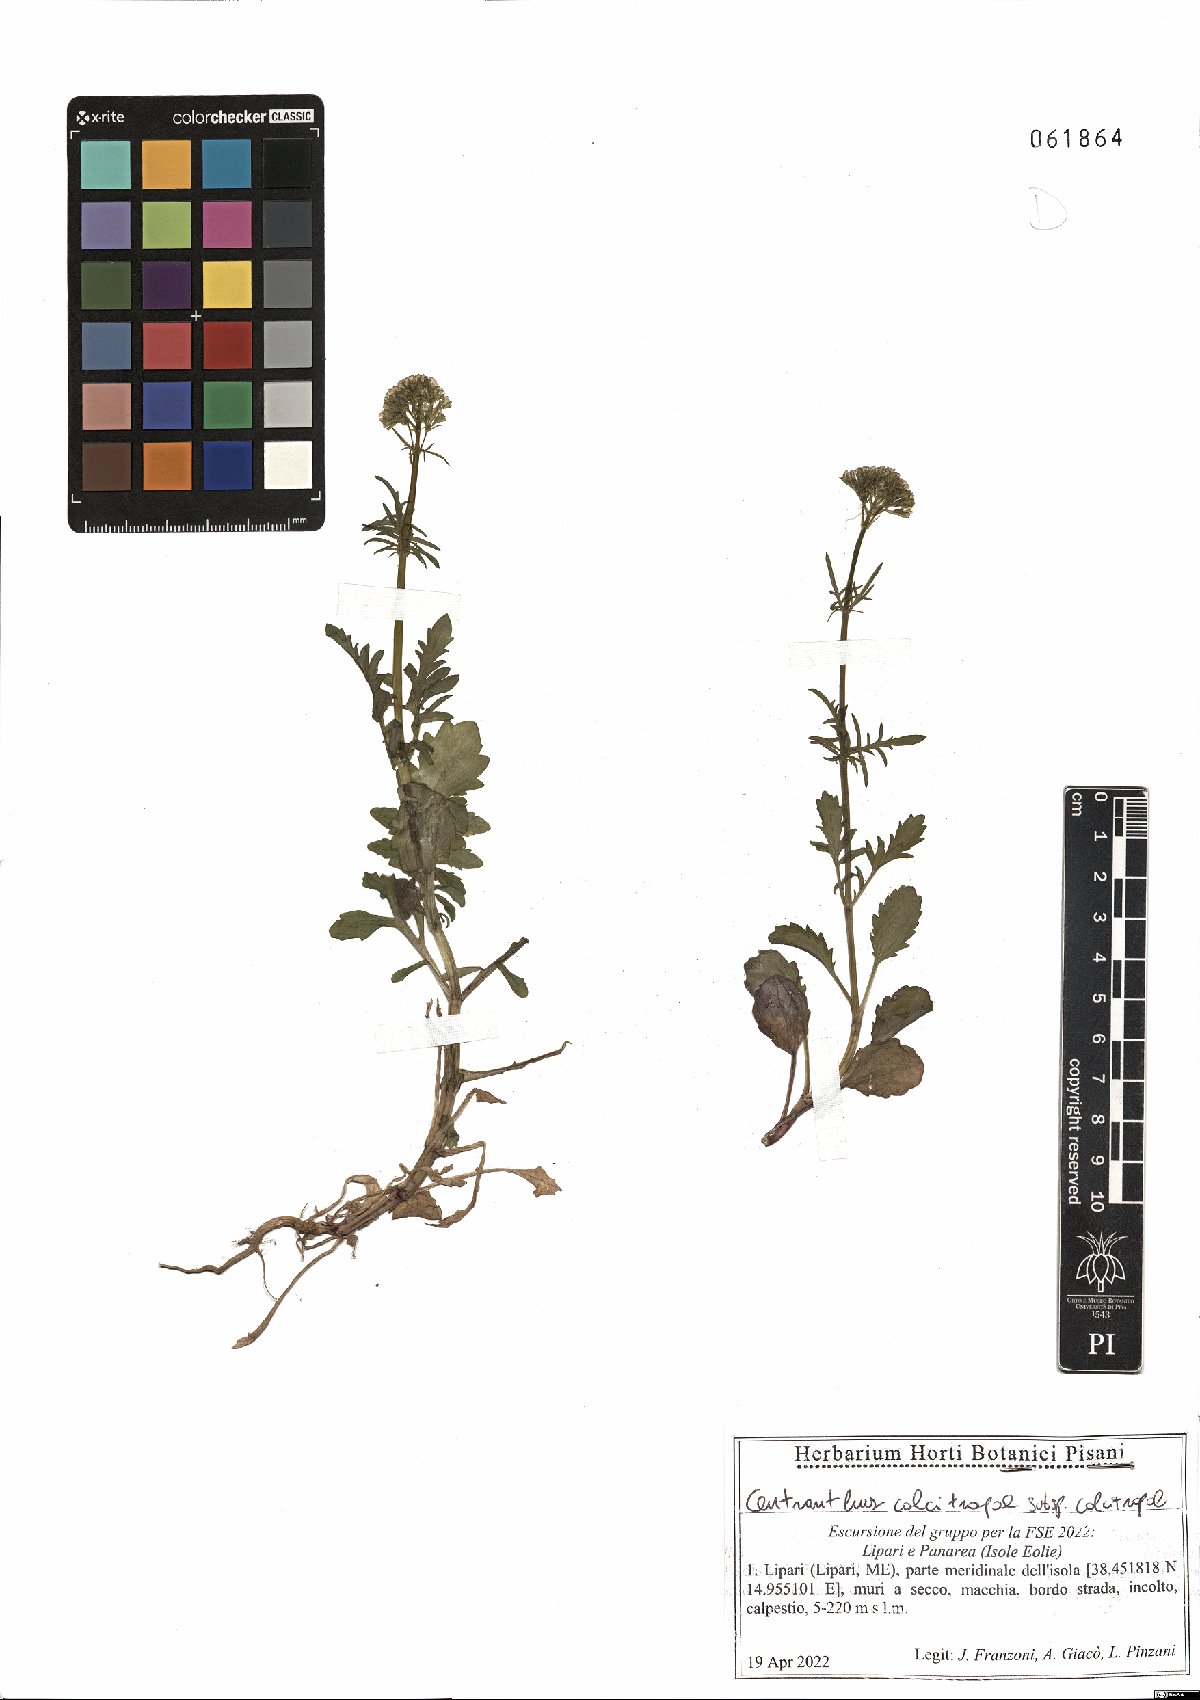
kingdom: Plantae
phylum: Tracheophyta
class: Magnoliopsida
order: Dipsacales
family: Caprifoliaceae
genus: Centranthus
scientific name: Centranthus calcitrapae
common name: Annual valerian
